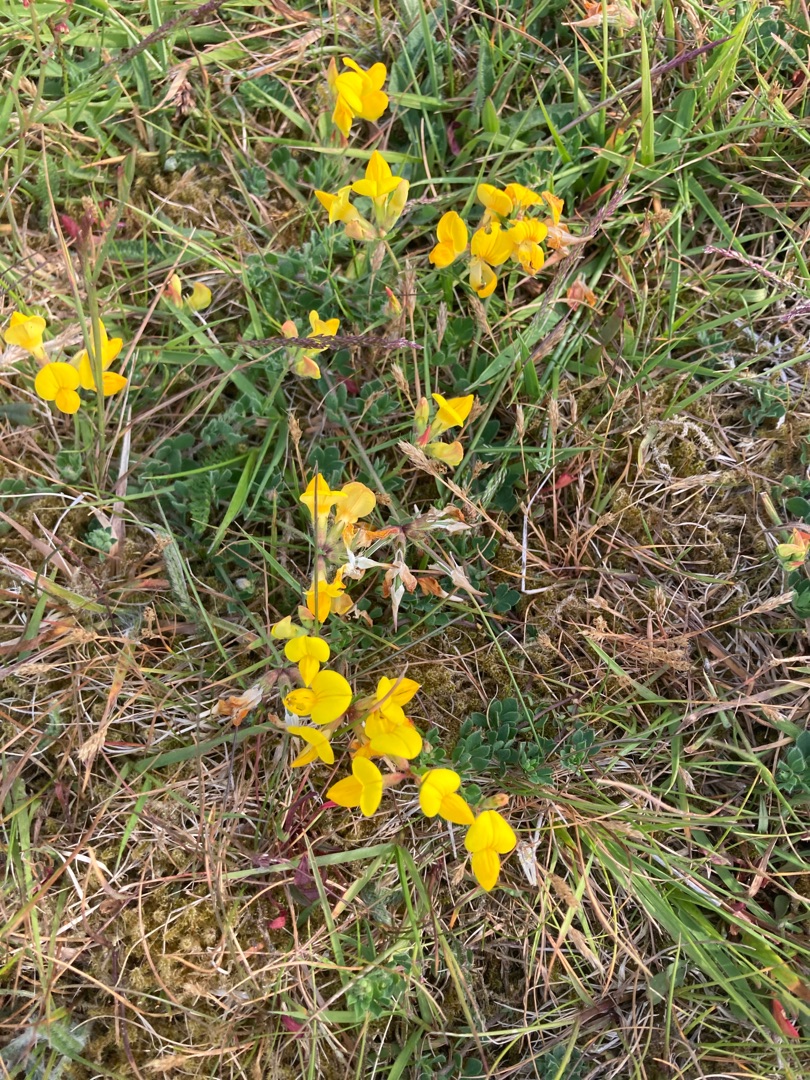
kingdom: Plantae
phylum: Tracheophyta
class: Magnoliopsida
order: Fabales
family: Fabaceae
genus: Lotus
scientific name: Lotus corniculatus
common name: Almindelig kællingetand
